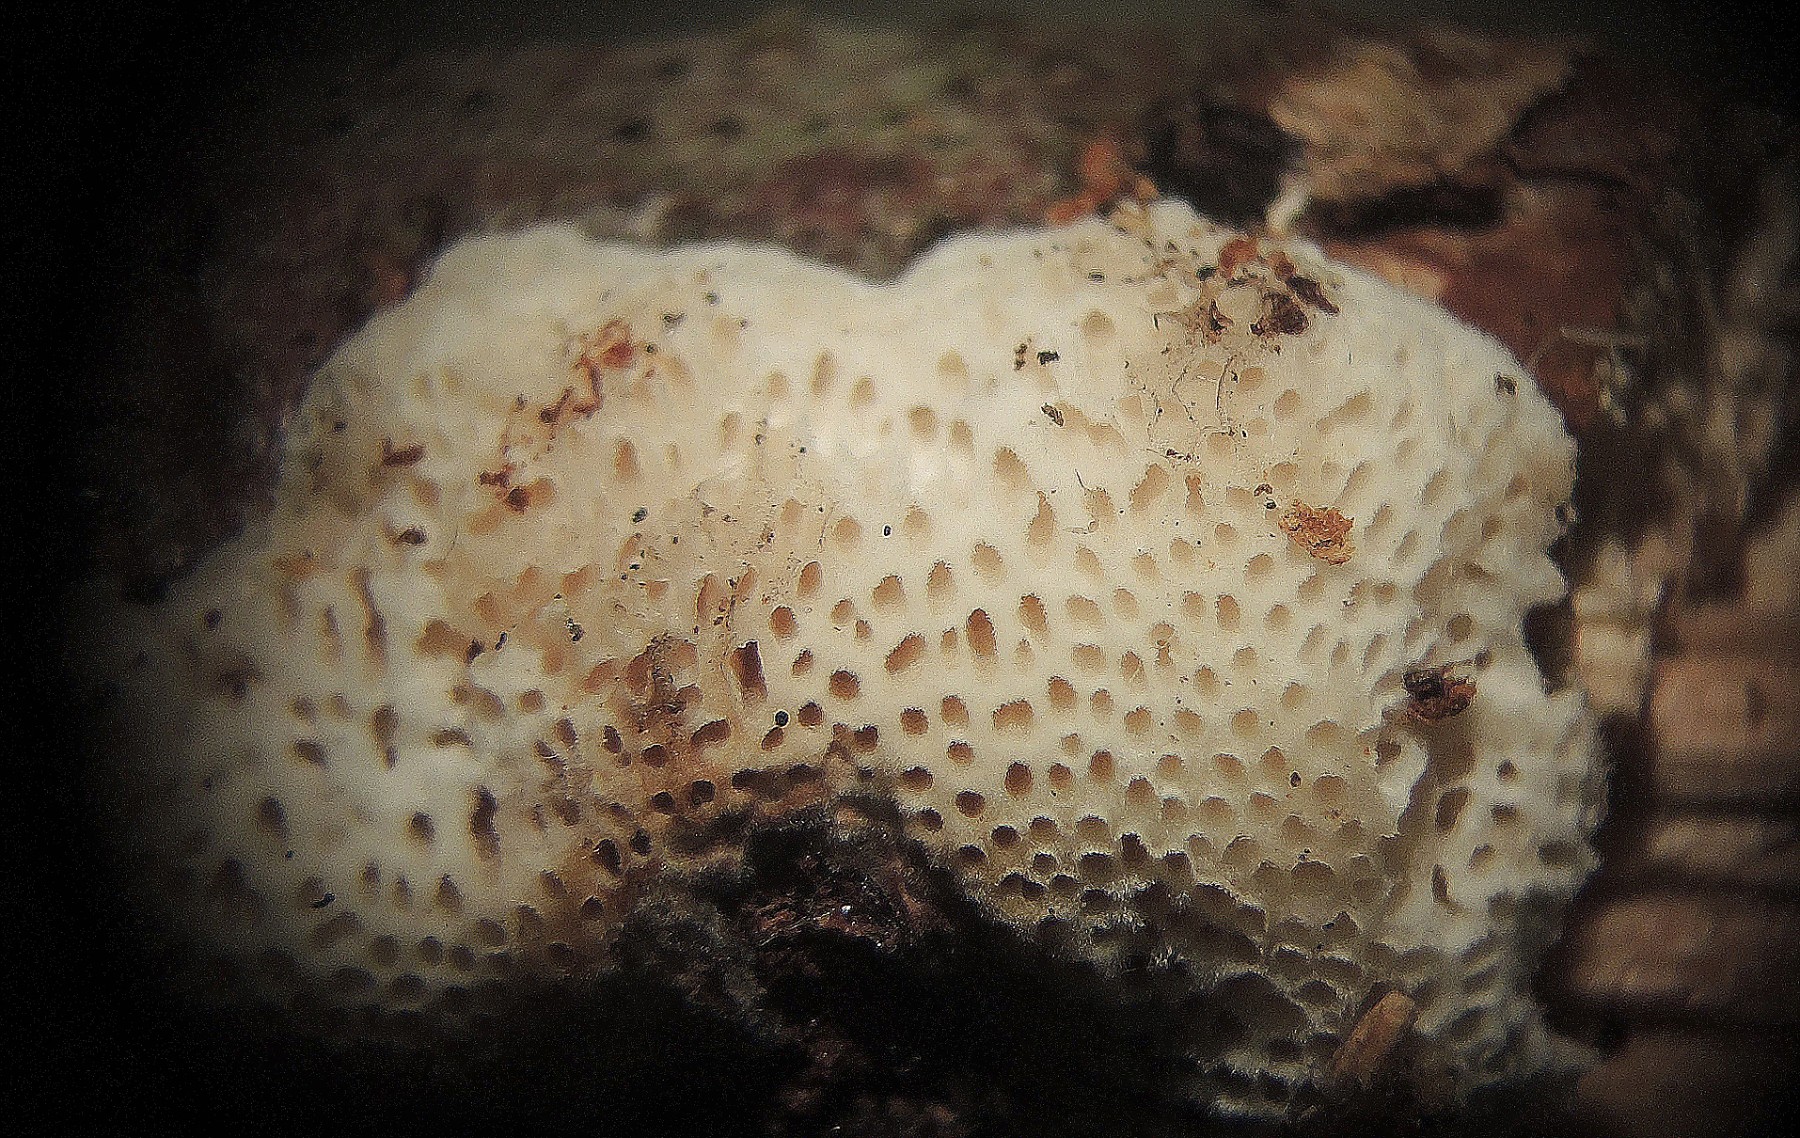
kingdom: Fungi
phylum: Basidiomycota
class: Agaricomycetes
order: Polyporales
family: Polyporaceae
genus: Szczepkamyces
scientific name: Szczepkamyces campestris
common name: hasselporesvamp
